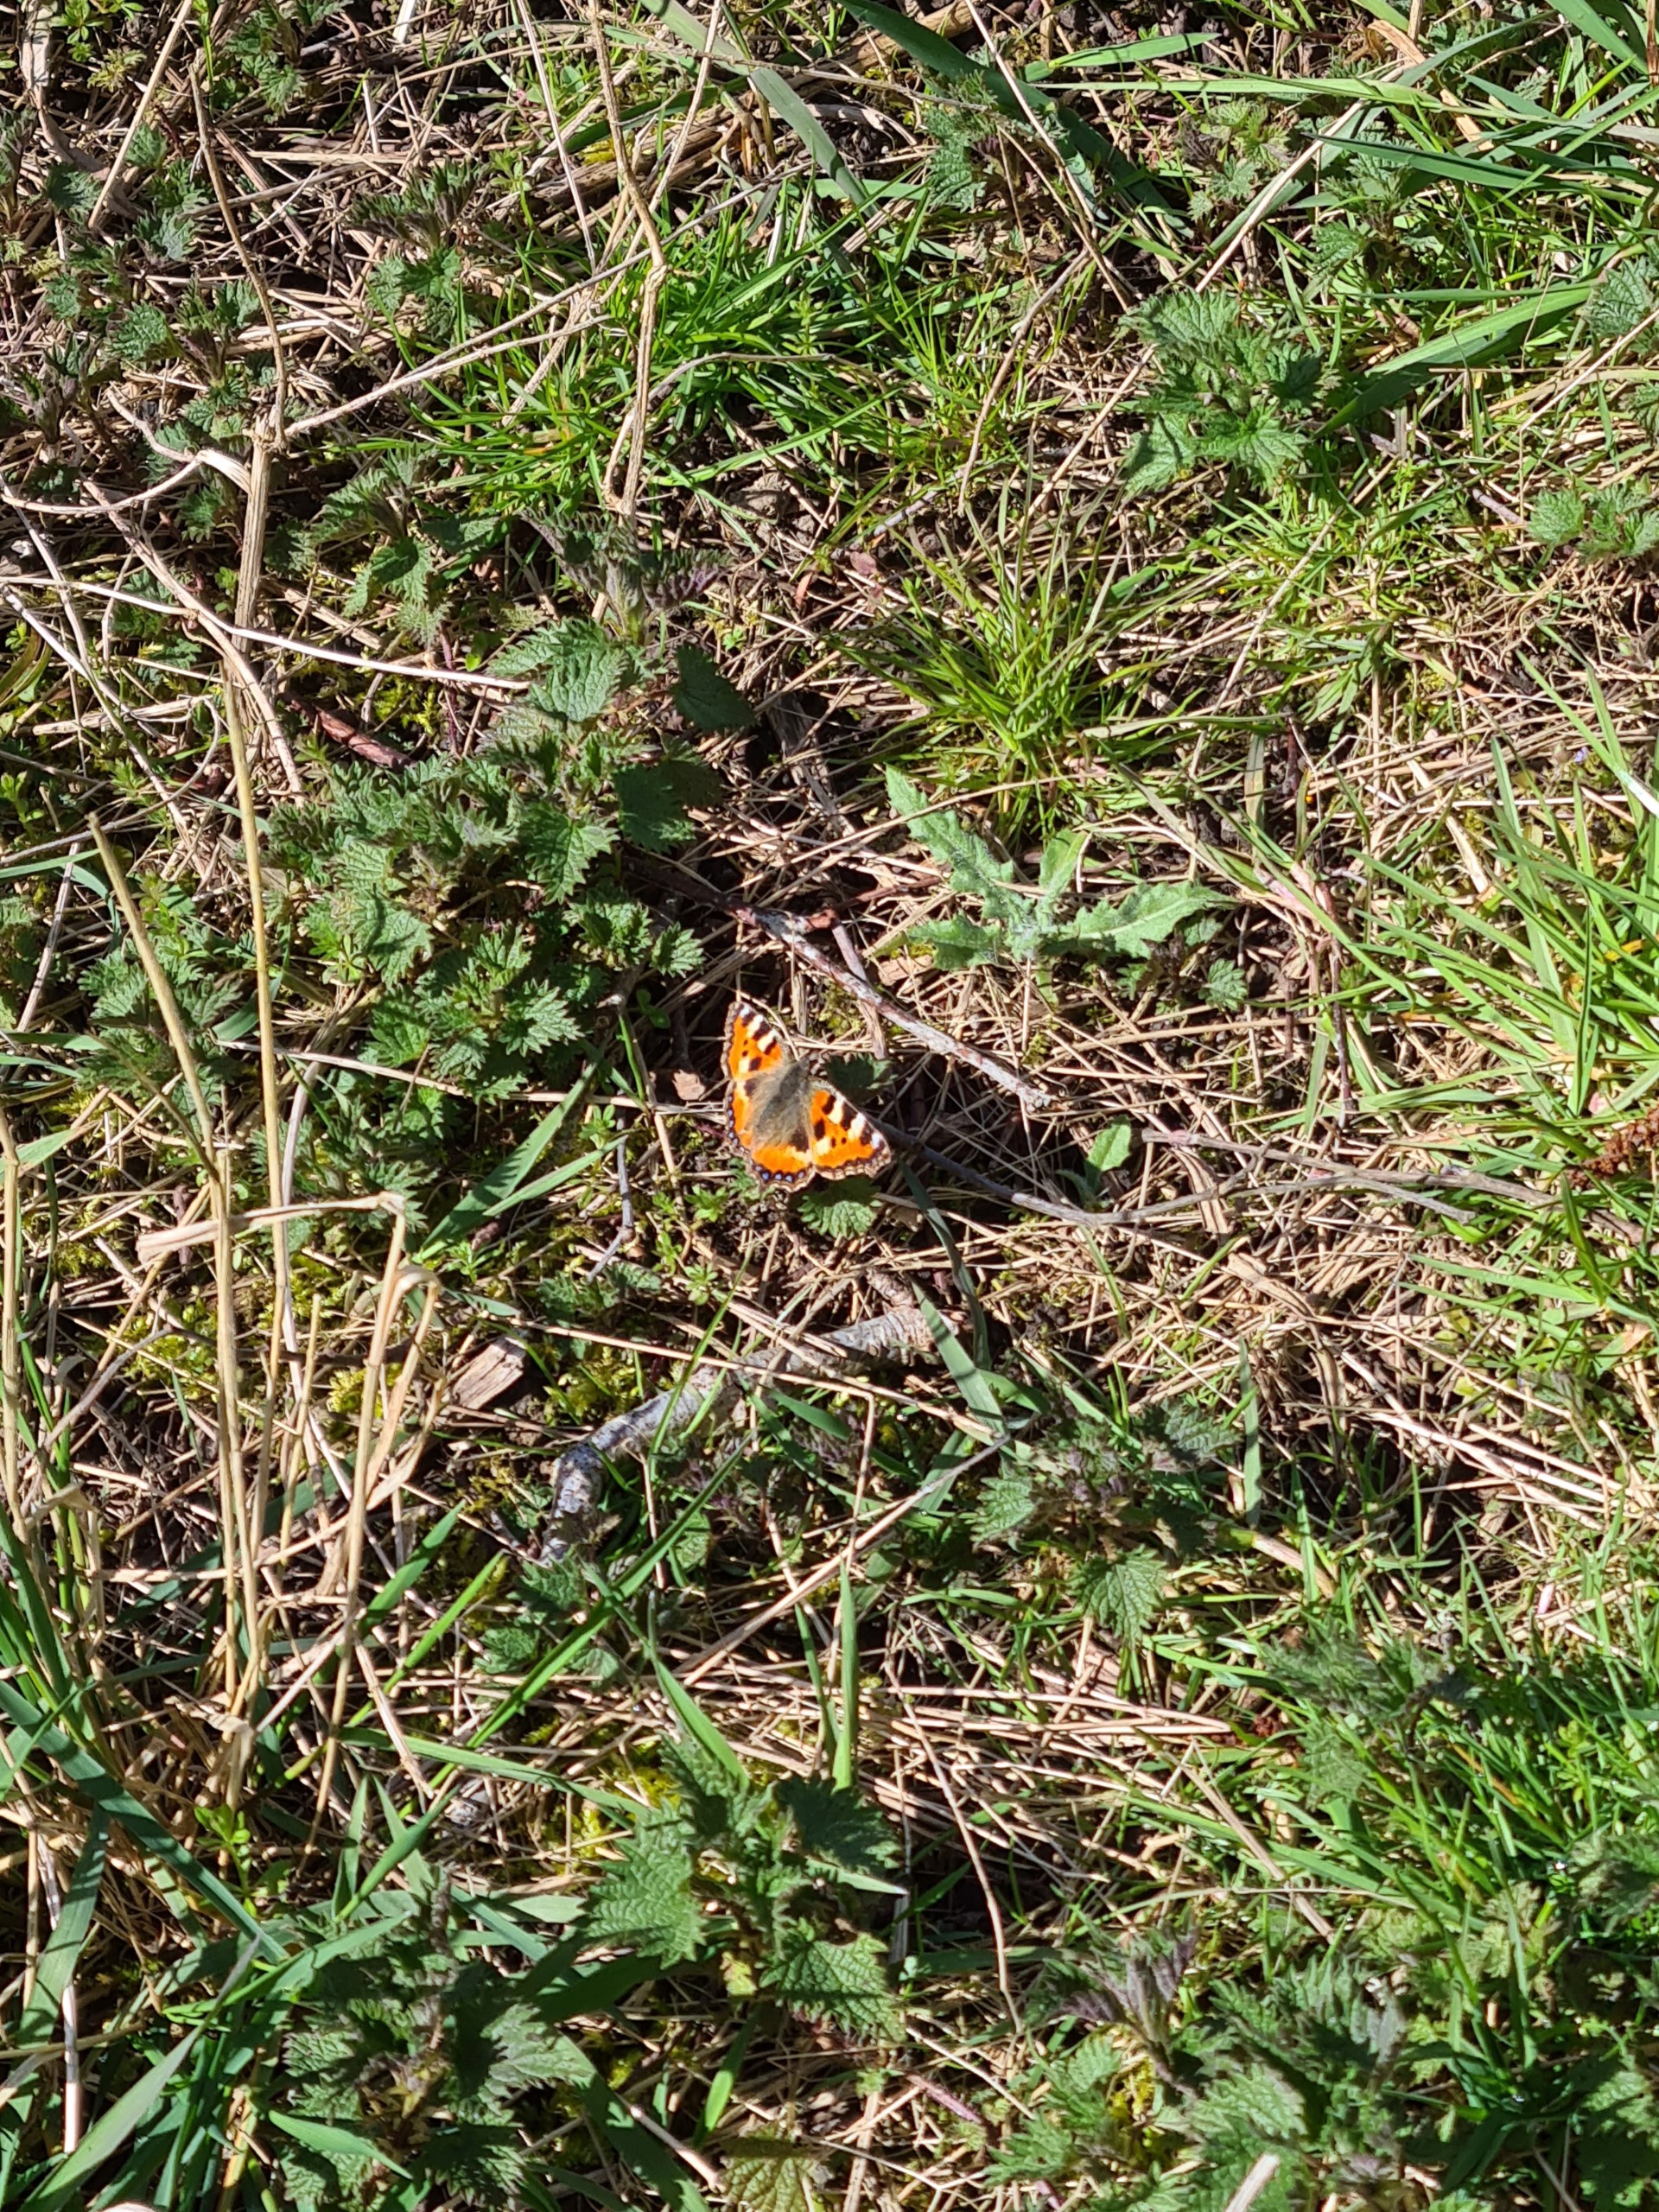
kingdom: Animalia
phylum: Arthropoda
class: Insecta
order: Lepidoptera
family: Nymphalidae
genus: Aglais
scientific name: Aglais urticae
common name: Nældens takvinge
